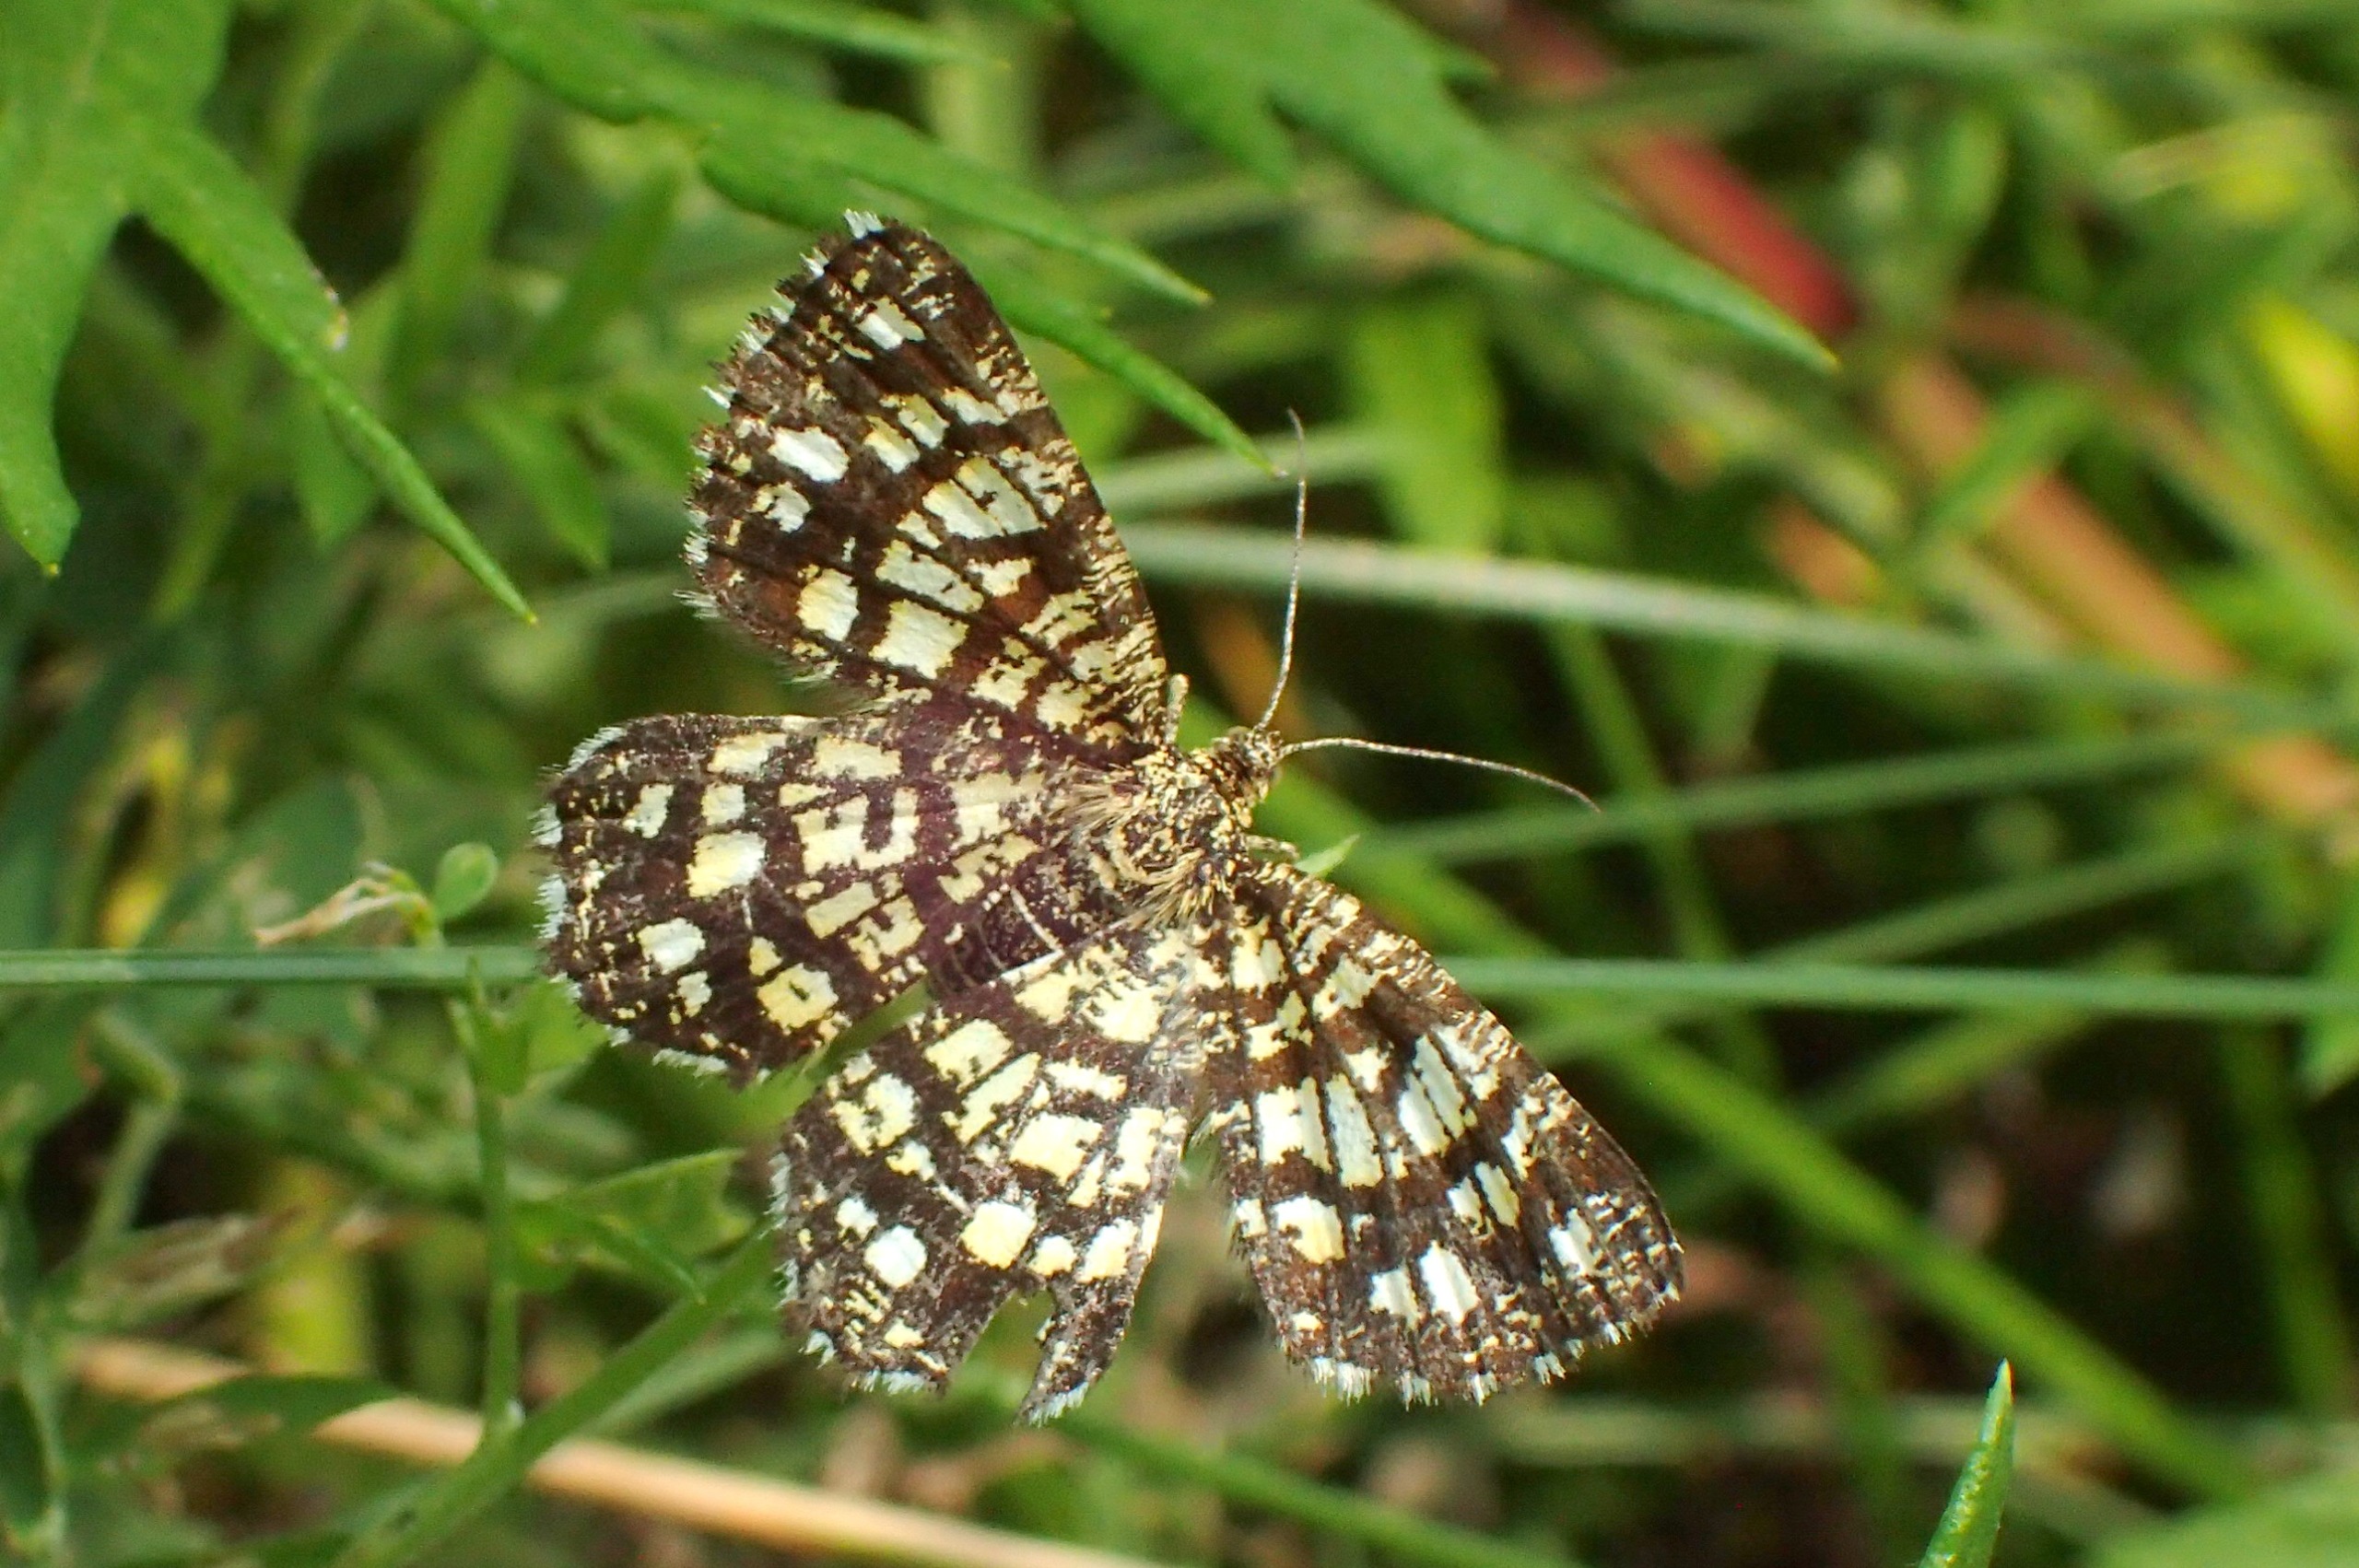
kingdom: Animalia
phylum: Arthropoda
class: Insecta
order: Lepidoptera
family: Geometridae
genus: Chiasmia
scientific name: Chiasmia clathrata
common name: Kløvermåler
